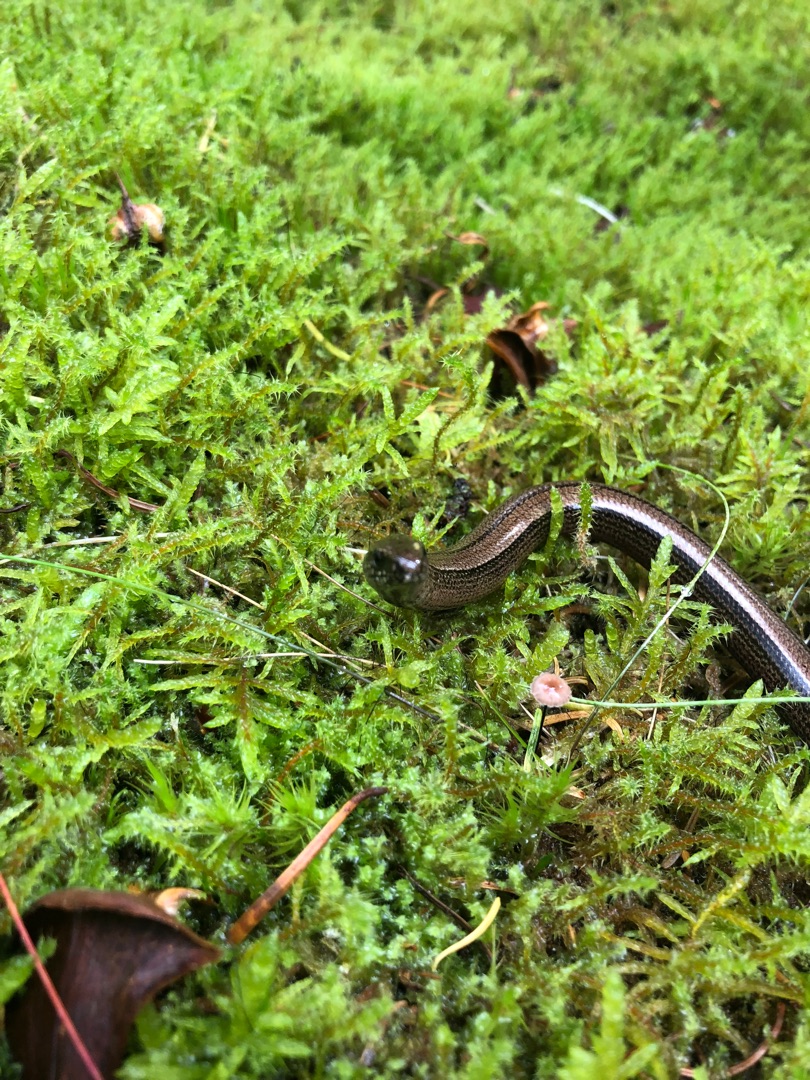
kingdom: Animalia
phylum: Chordata
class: Squamata
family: Anguidae
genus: Anguis
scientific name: Anguis fragilis
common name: Stålorm
